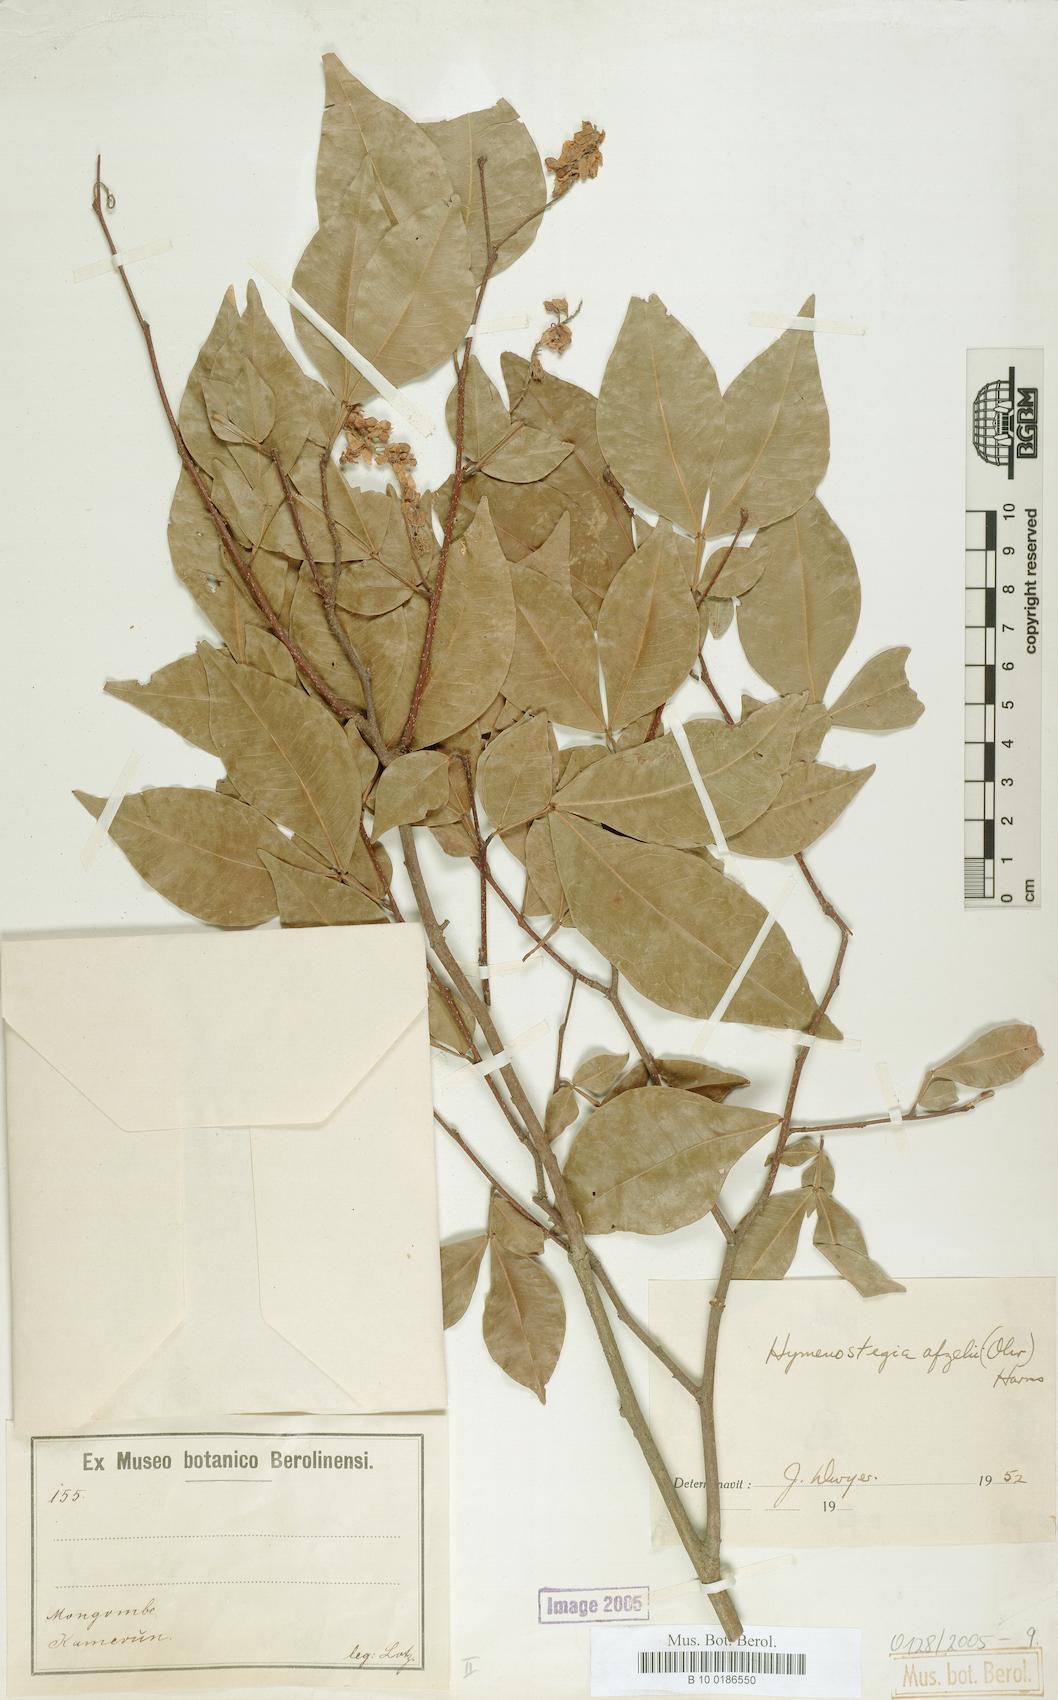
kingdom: Plantae
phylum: Tracheophyta
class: Magnoliopsida
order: Fabales
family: Fabaceae
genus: Annea
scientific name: Annea afzelii
